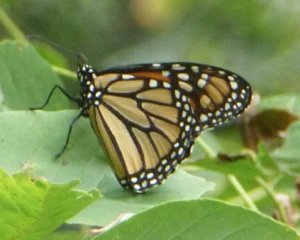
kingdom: Animalia
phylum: Arthropoda
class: Insecta
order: Lepidoptera
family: Nymphalidae
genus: Danaus
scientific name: Danaus plexippus
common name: Monarch
